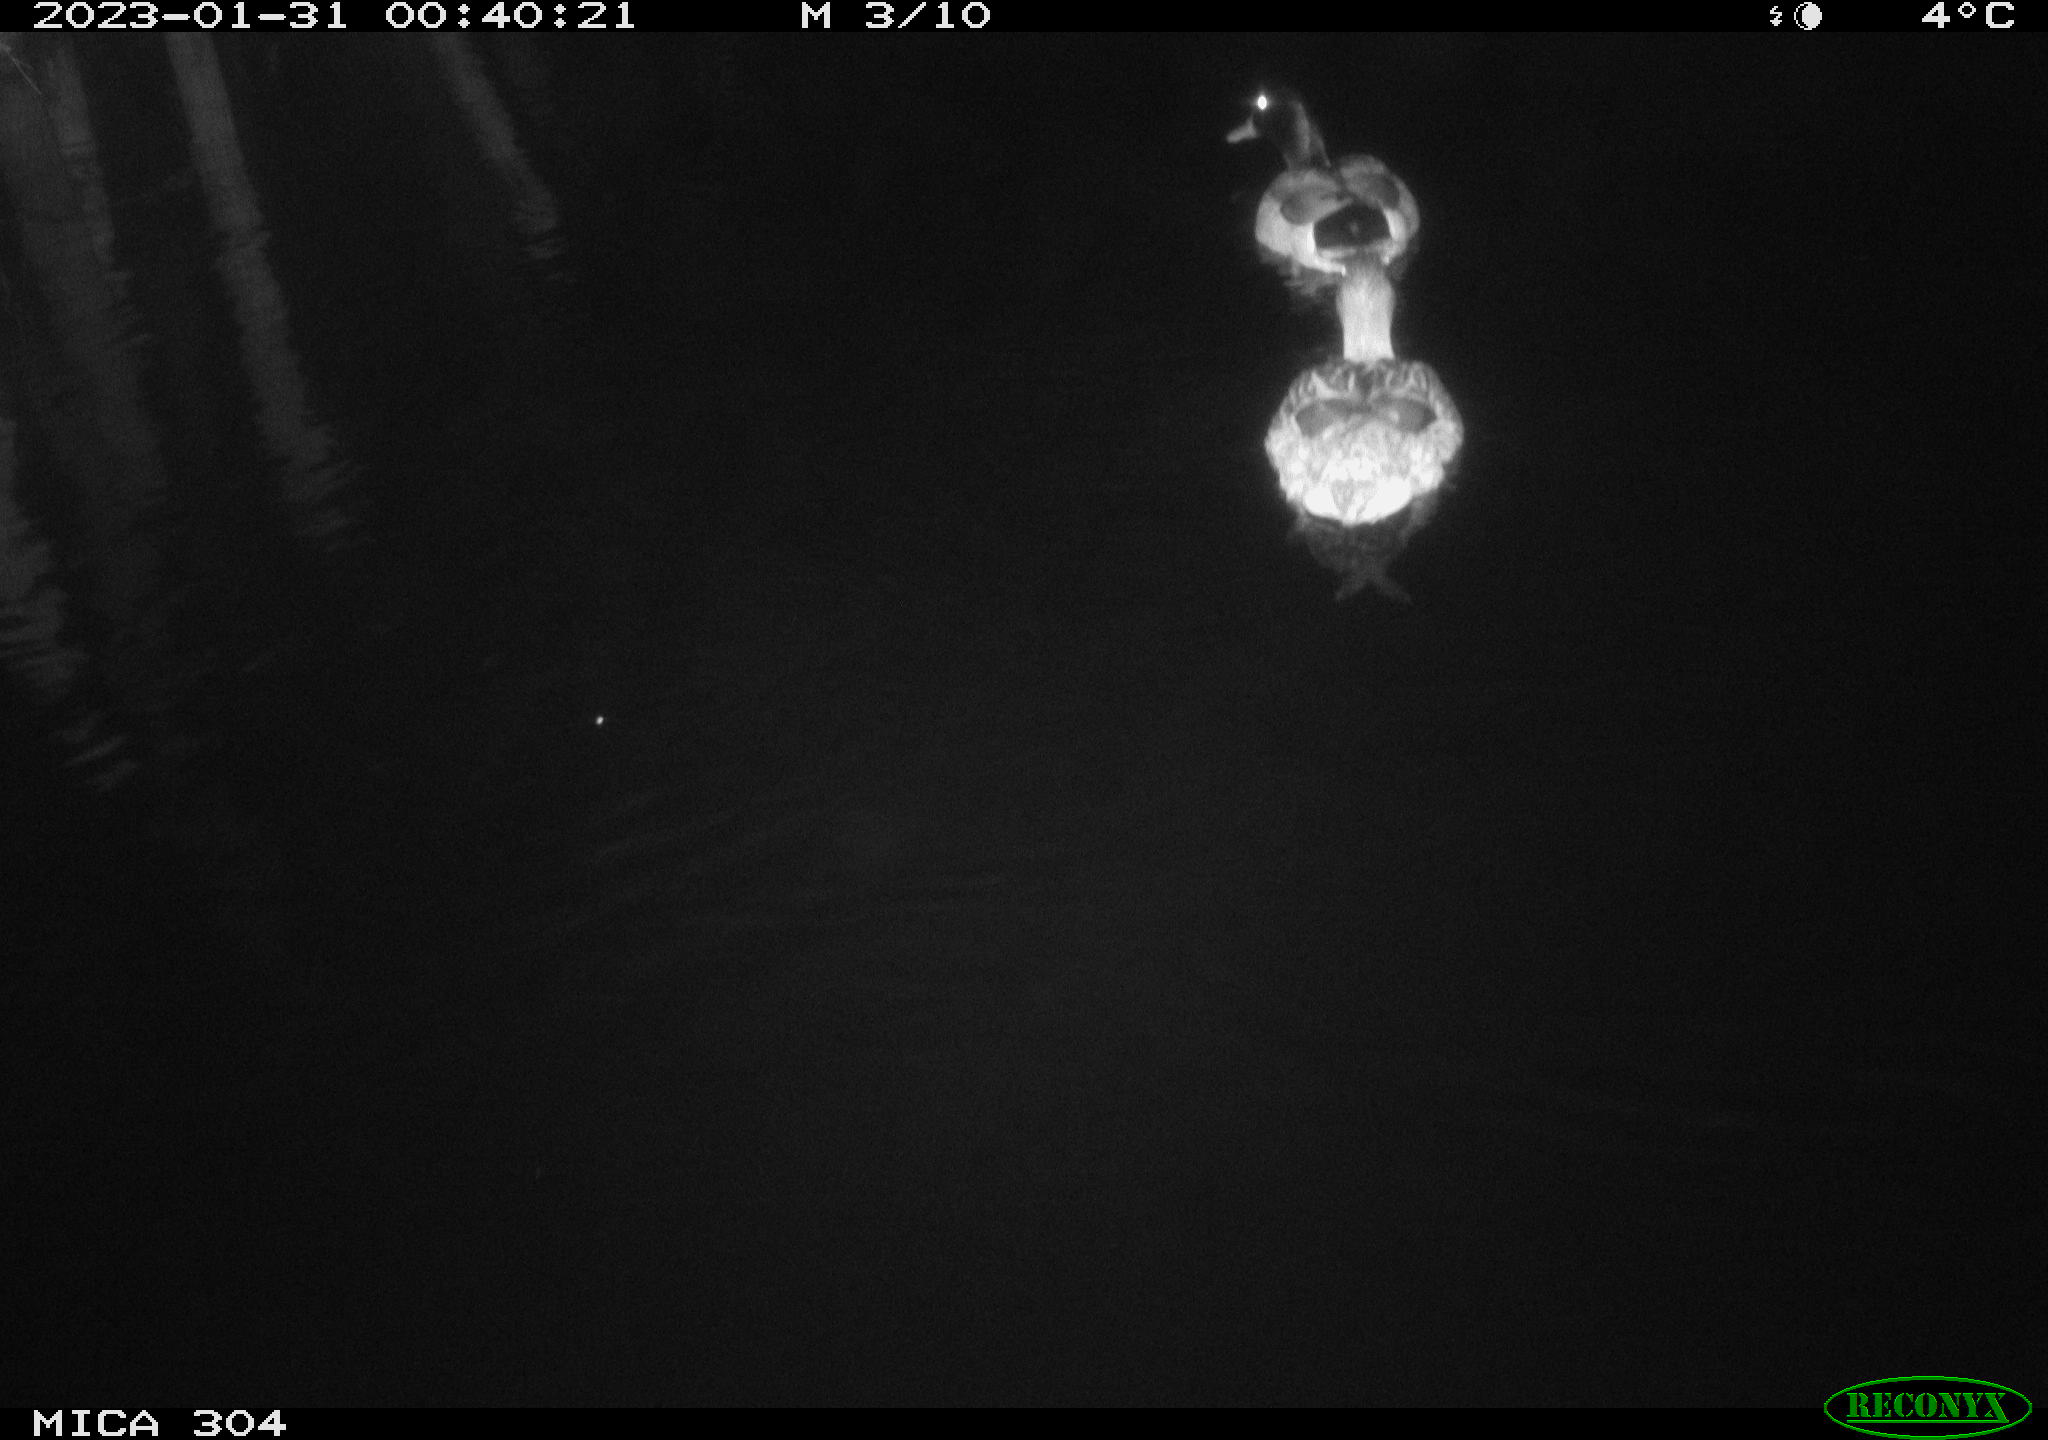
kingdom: Animalia
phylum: Chordata
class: Aves
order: Anseriformes
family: Anatidae
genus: Anas
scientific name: Anas
